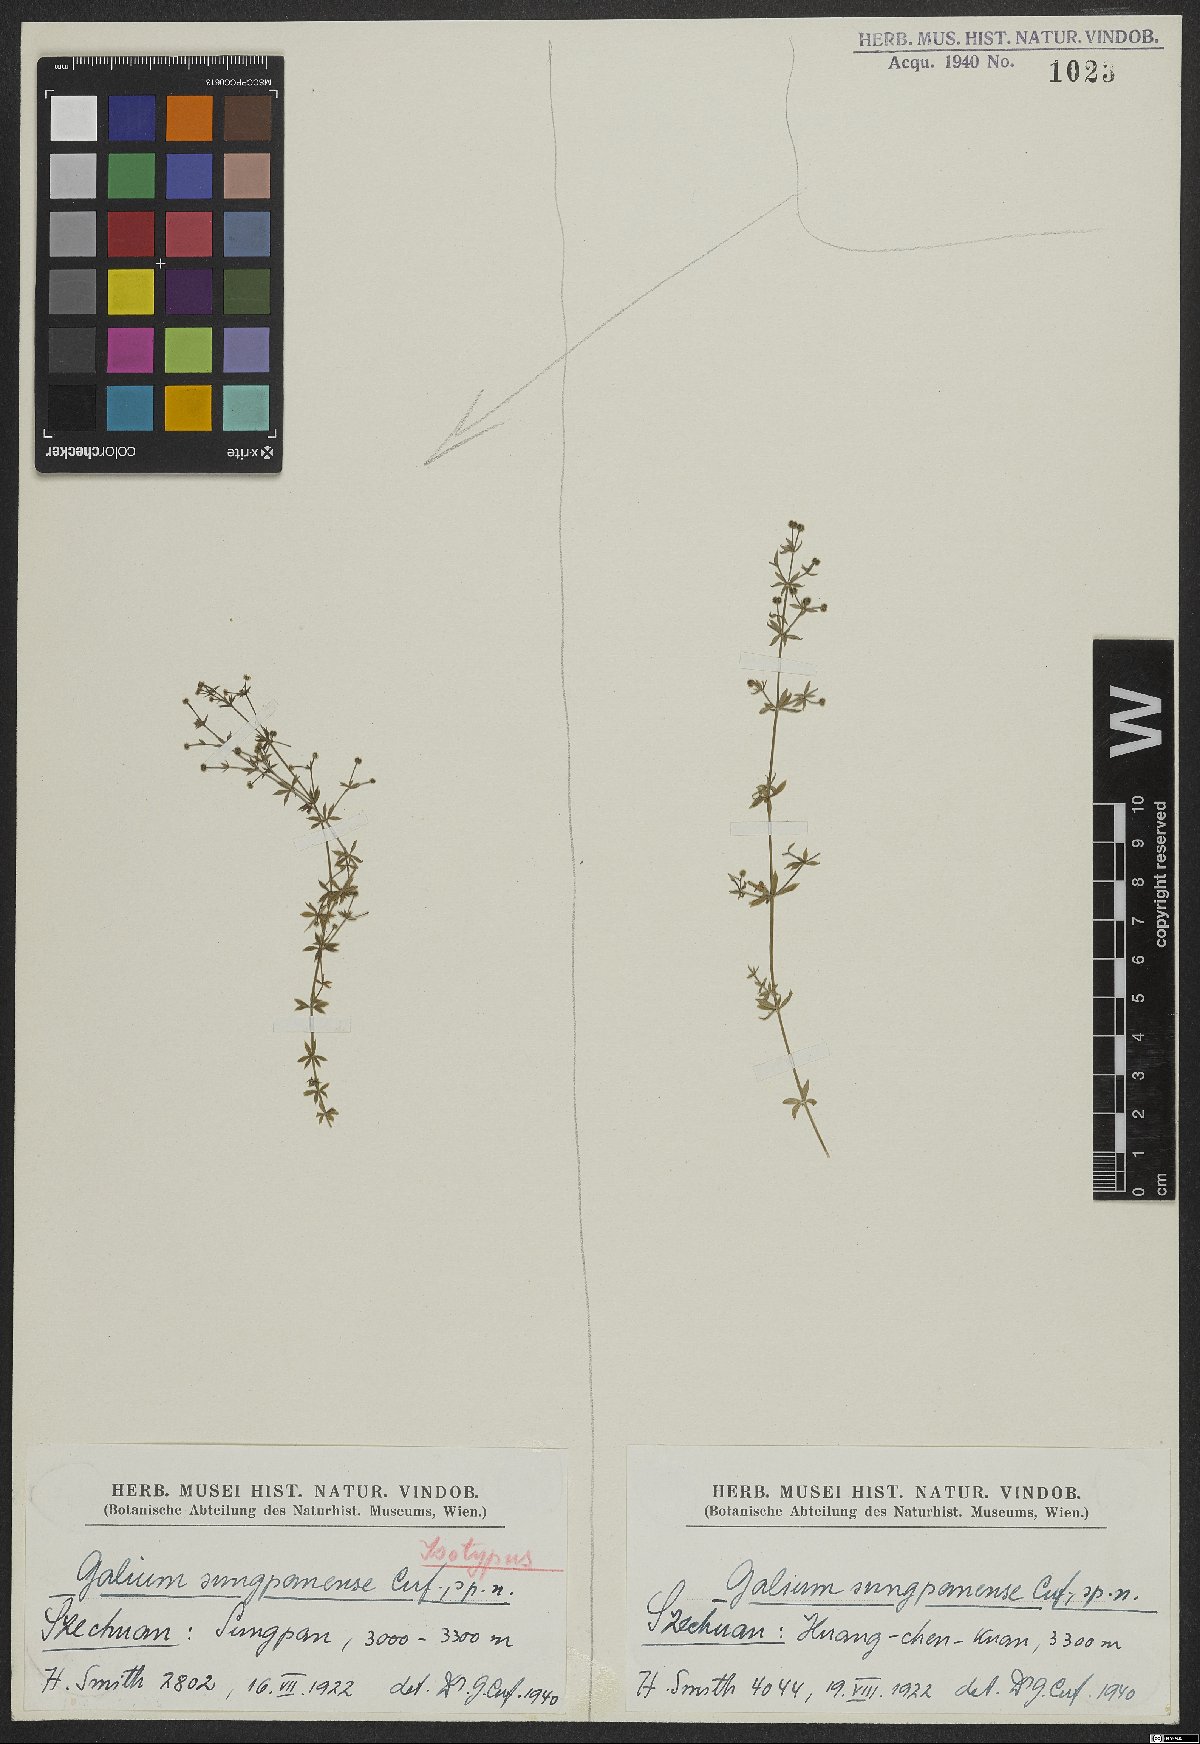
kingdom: Plantae
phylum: Tracheophyta
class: Magnoliopsida
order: Gentianales
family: Rubiaceae
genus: Galium
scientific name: Galium sungpanense
